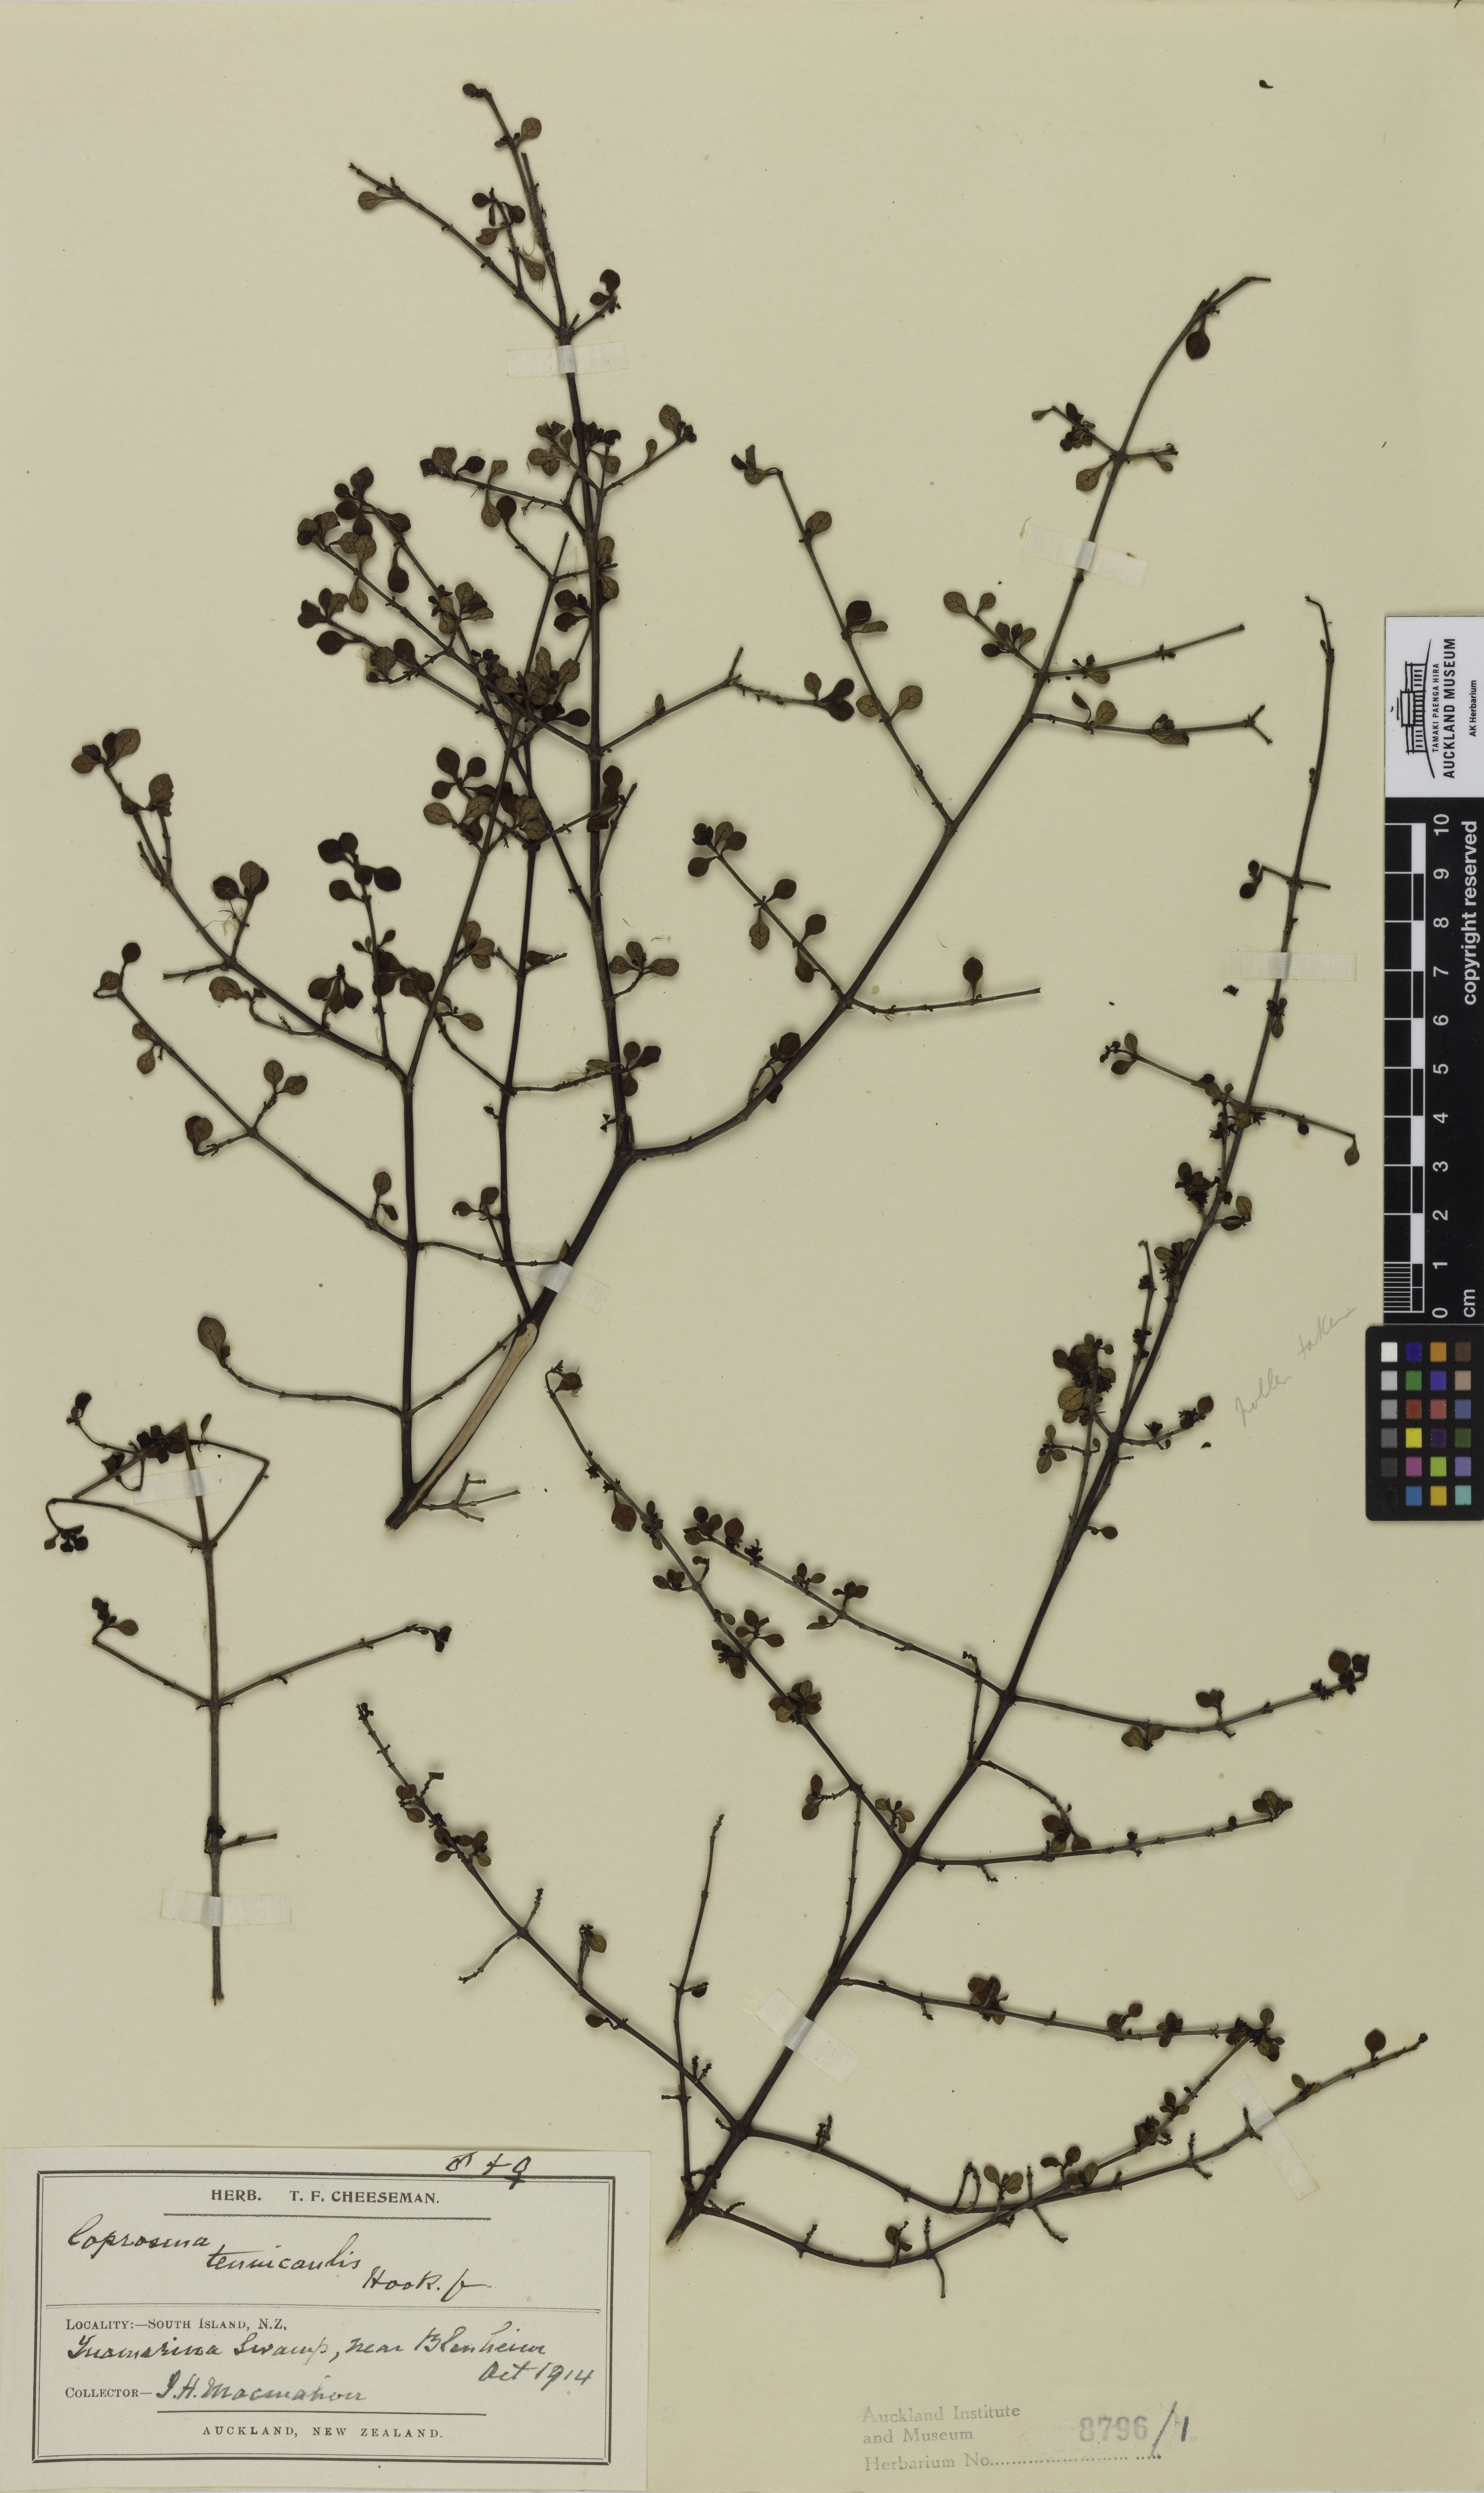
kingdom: Plantae
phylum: Tracheophyta
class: Magnoliopsida
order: Gentianales
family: Rubiaceae
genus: Coprosma
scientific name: Coprosma tenuicaulis
